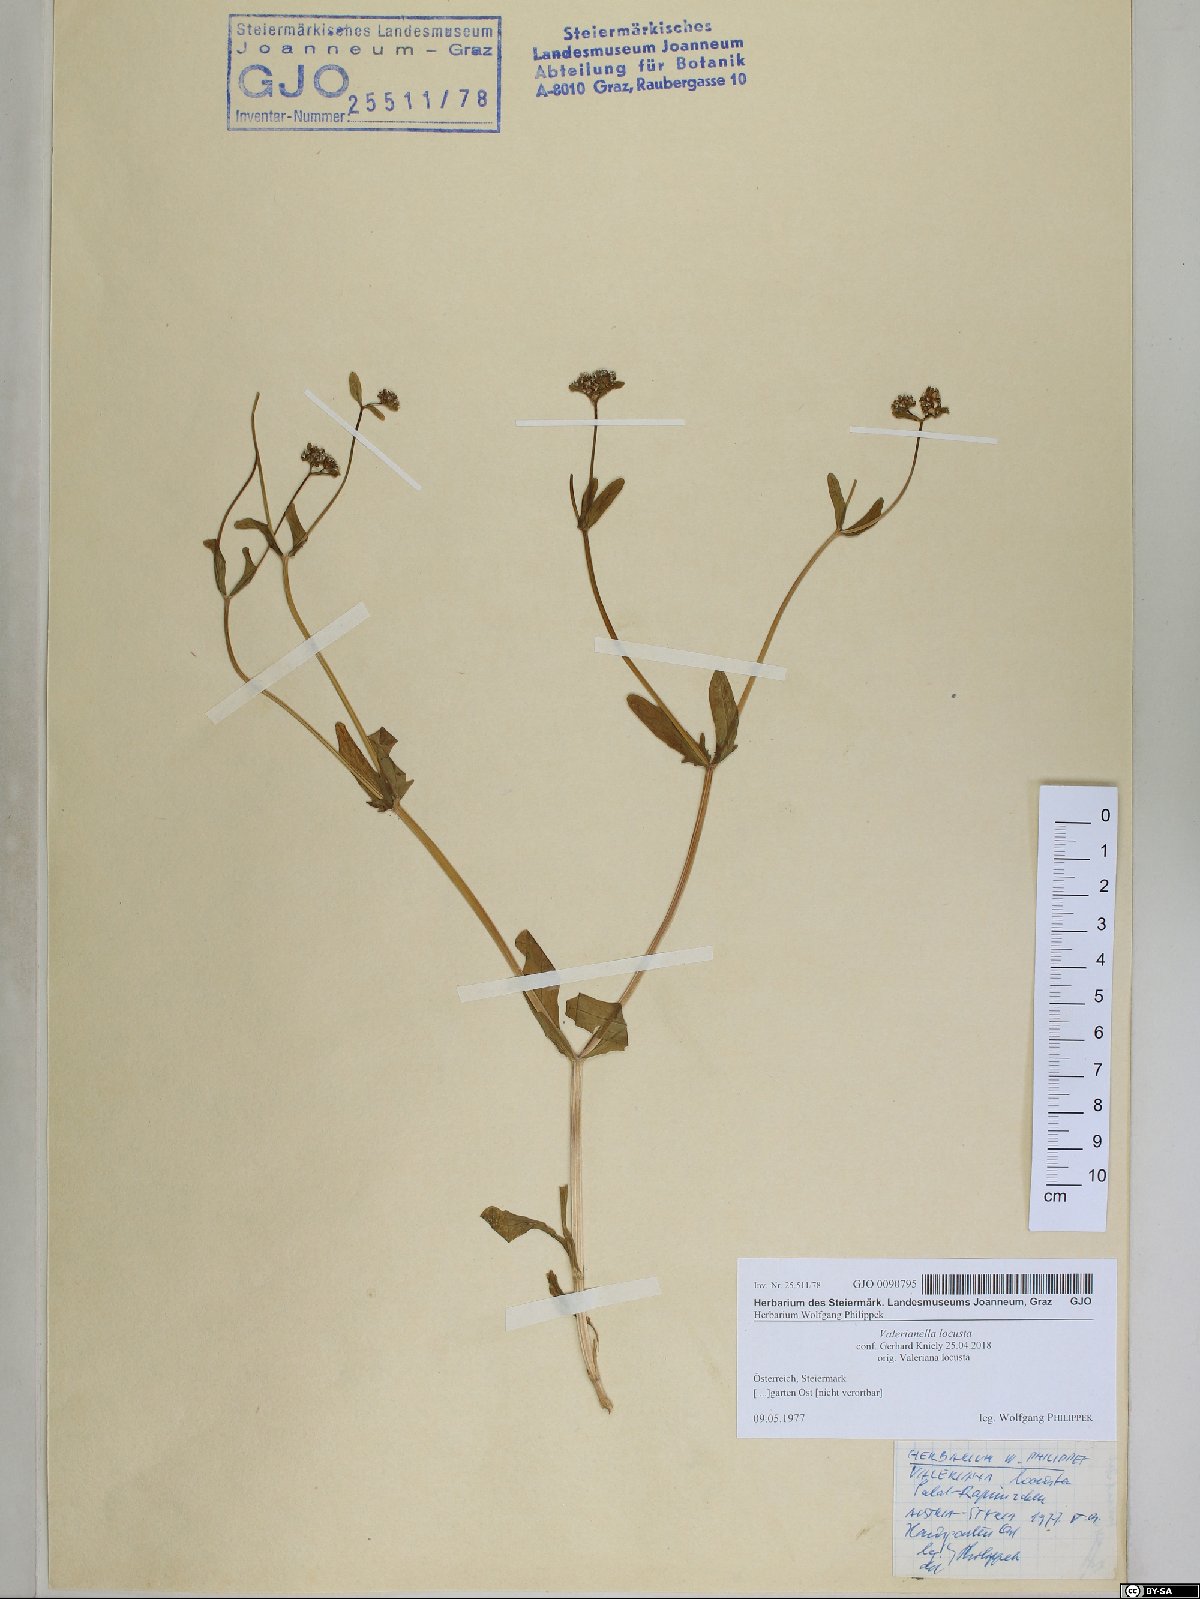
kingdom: Plantae
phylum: Tracheophyta
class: Magnoliopsida
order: Dipsacales
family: Caprifoliaceae
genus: Valerianella
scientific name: Valerianella locusta
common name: Common cornsalad
